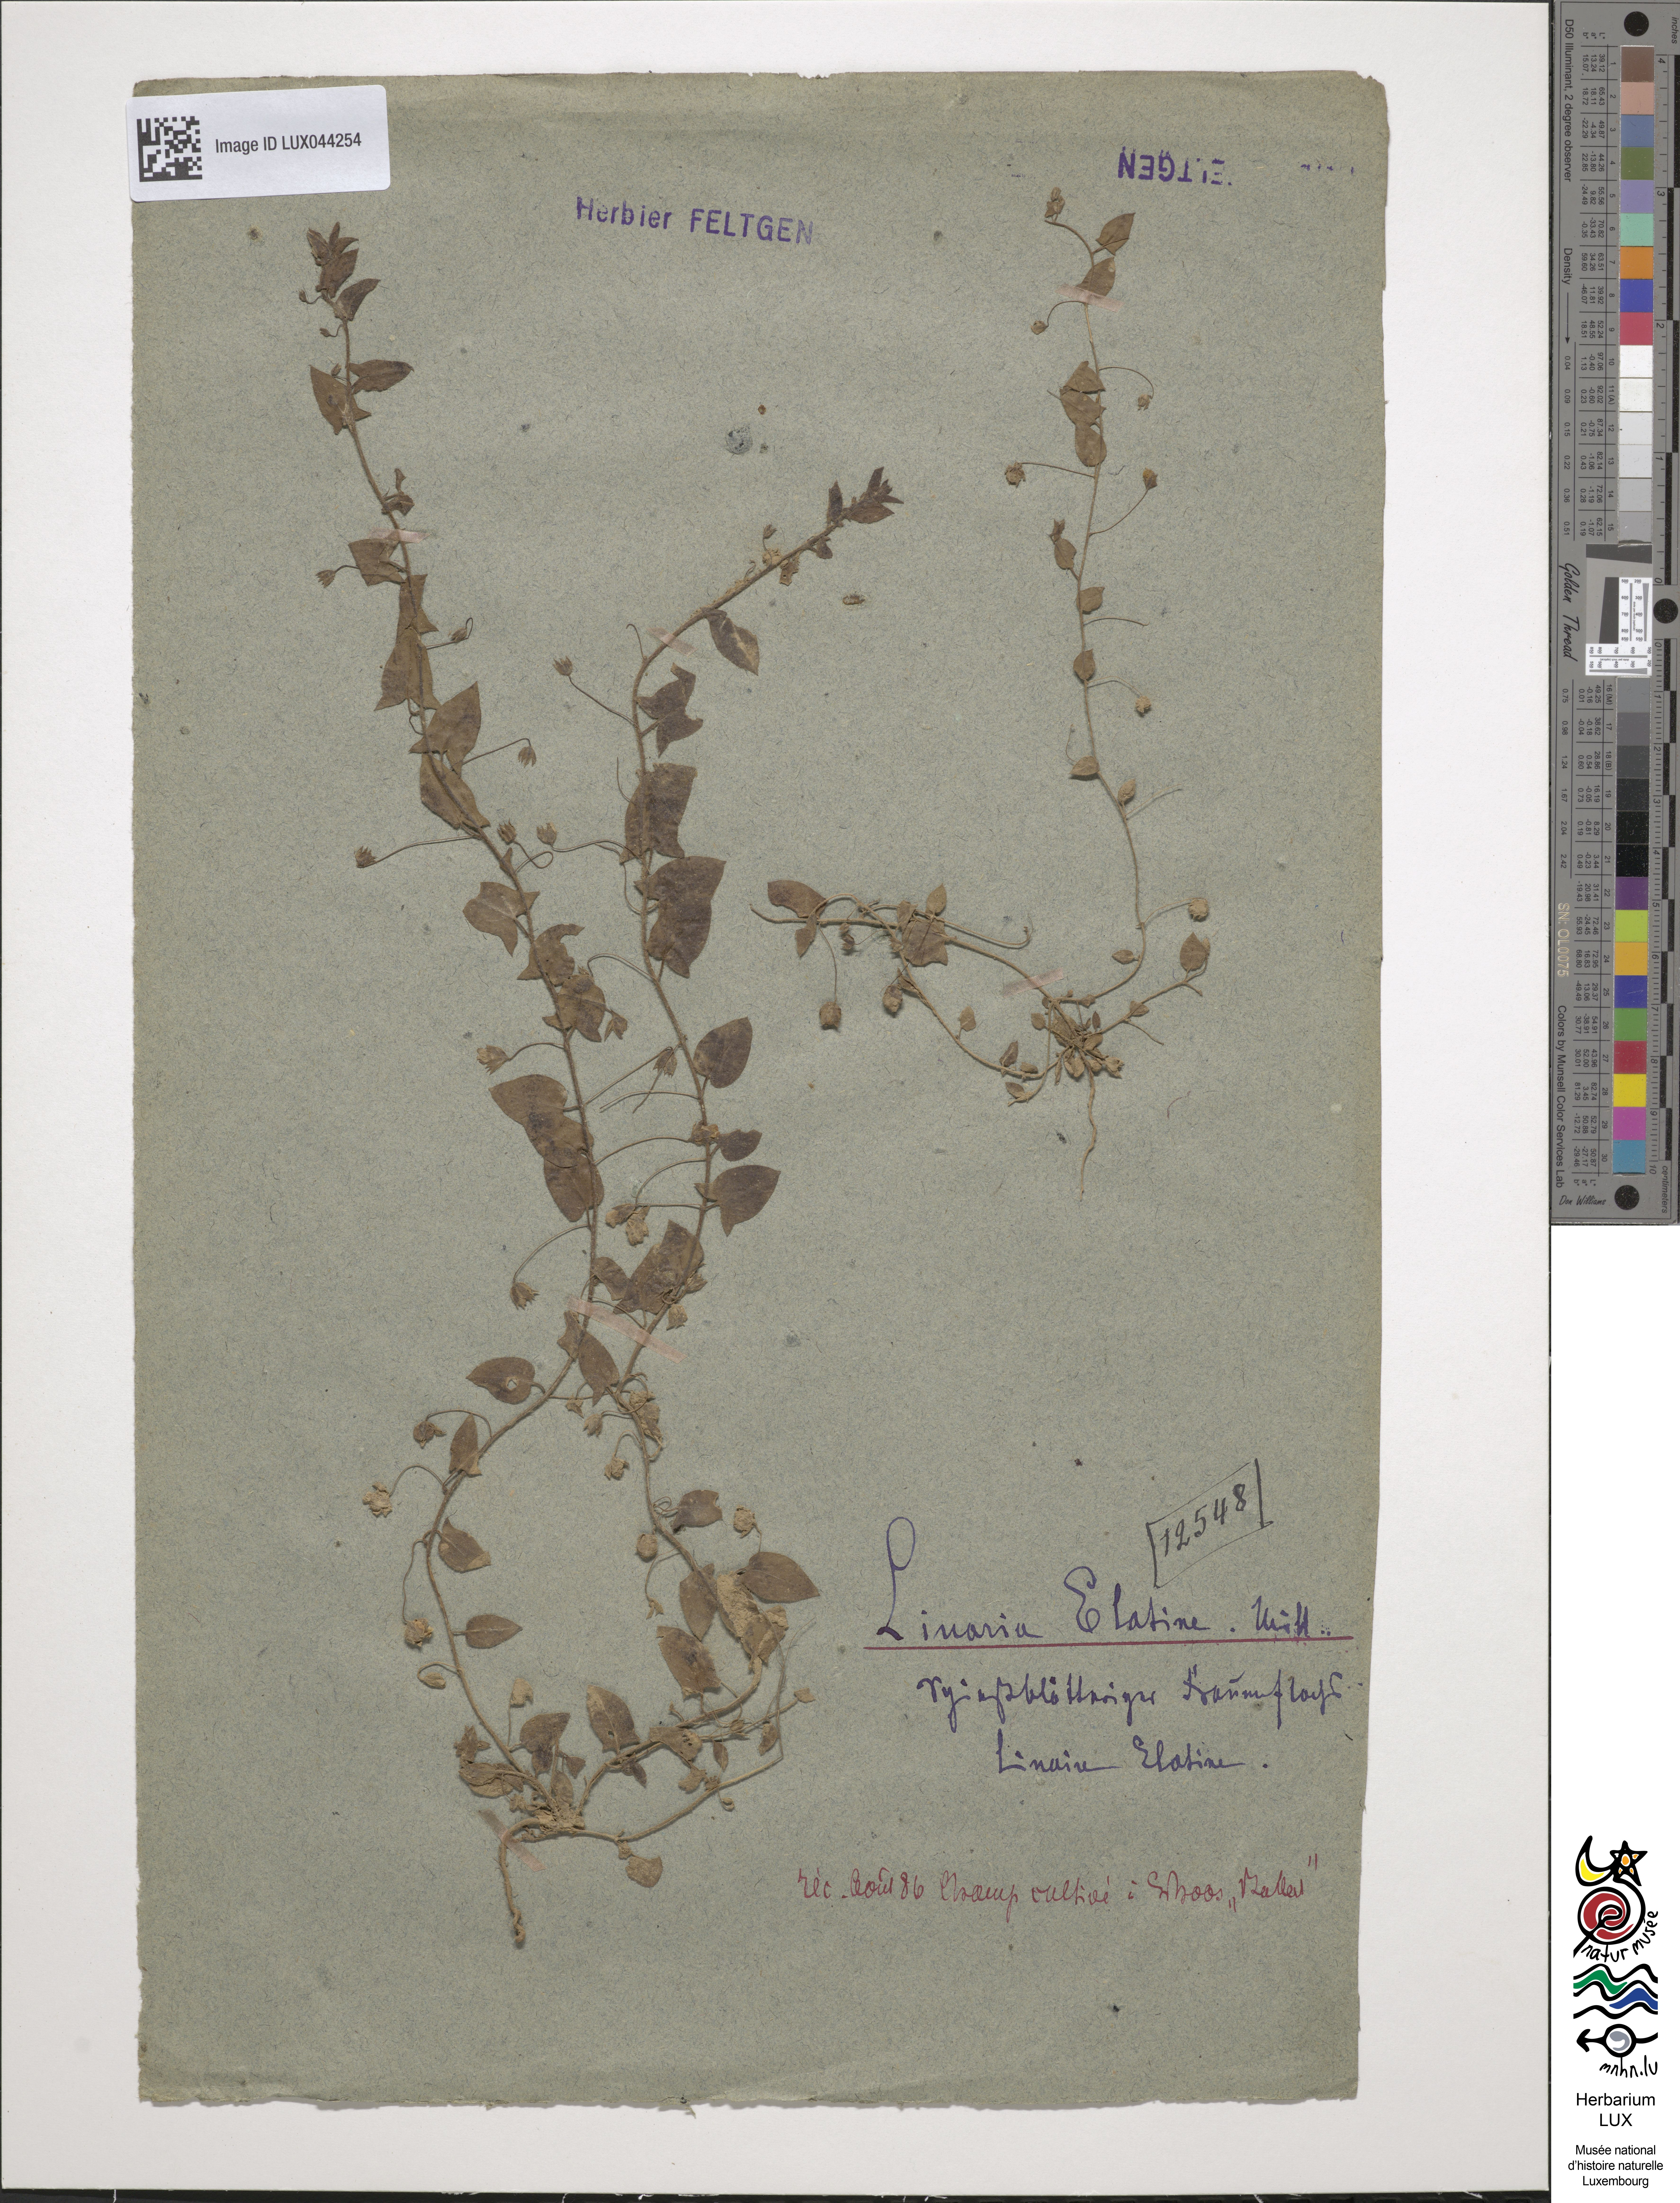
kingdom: Plantae
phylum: Tracheophyta
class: Magnoliopsida
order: Lamiales
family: Plantaginaceae
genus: Kickxia
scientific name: Kickxia elatine
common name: Sharp-leaved fluellen
